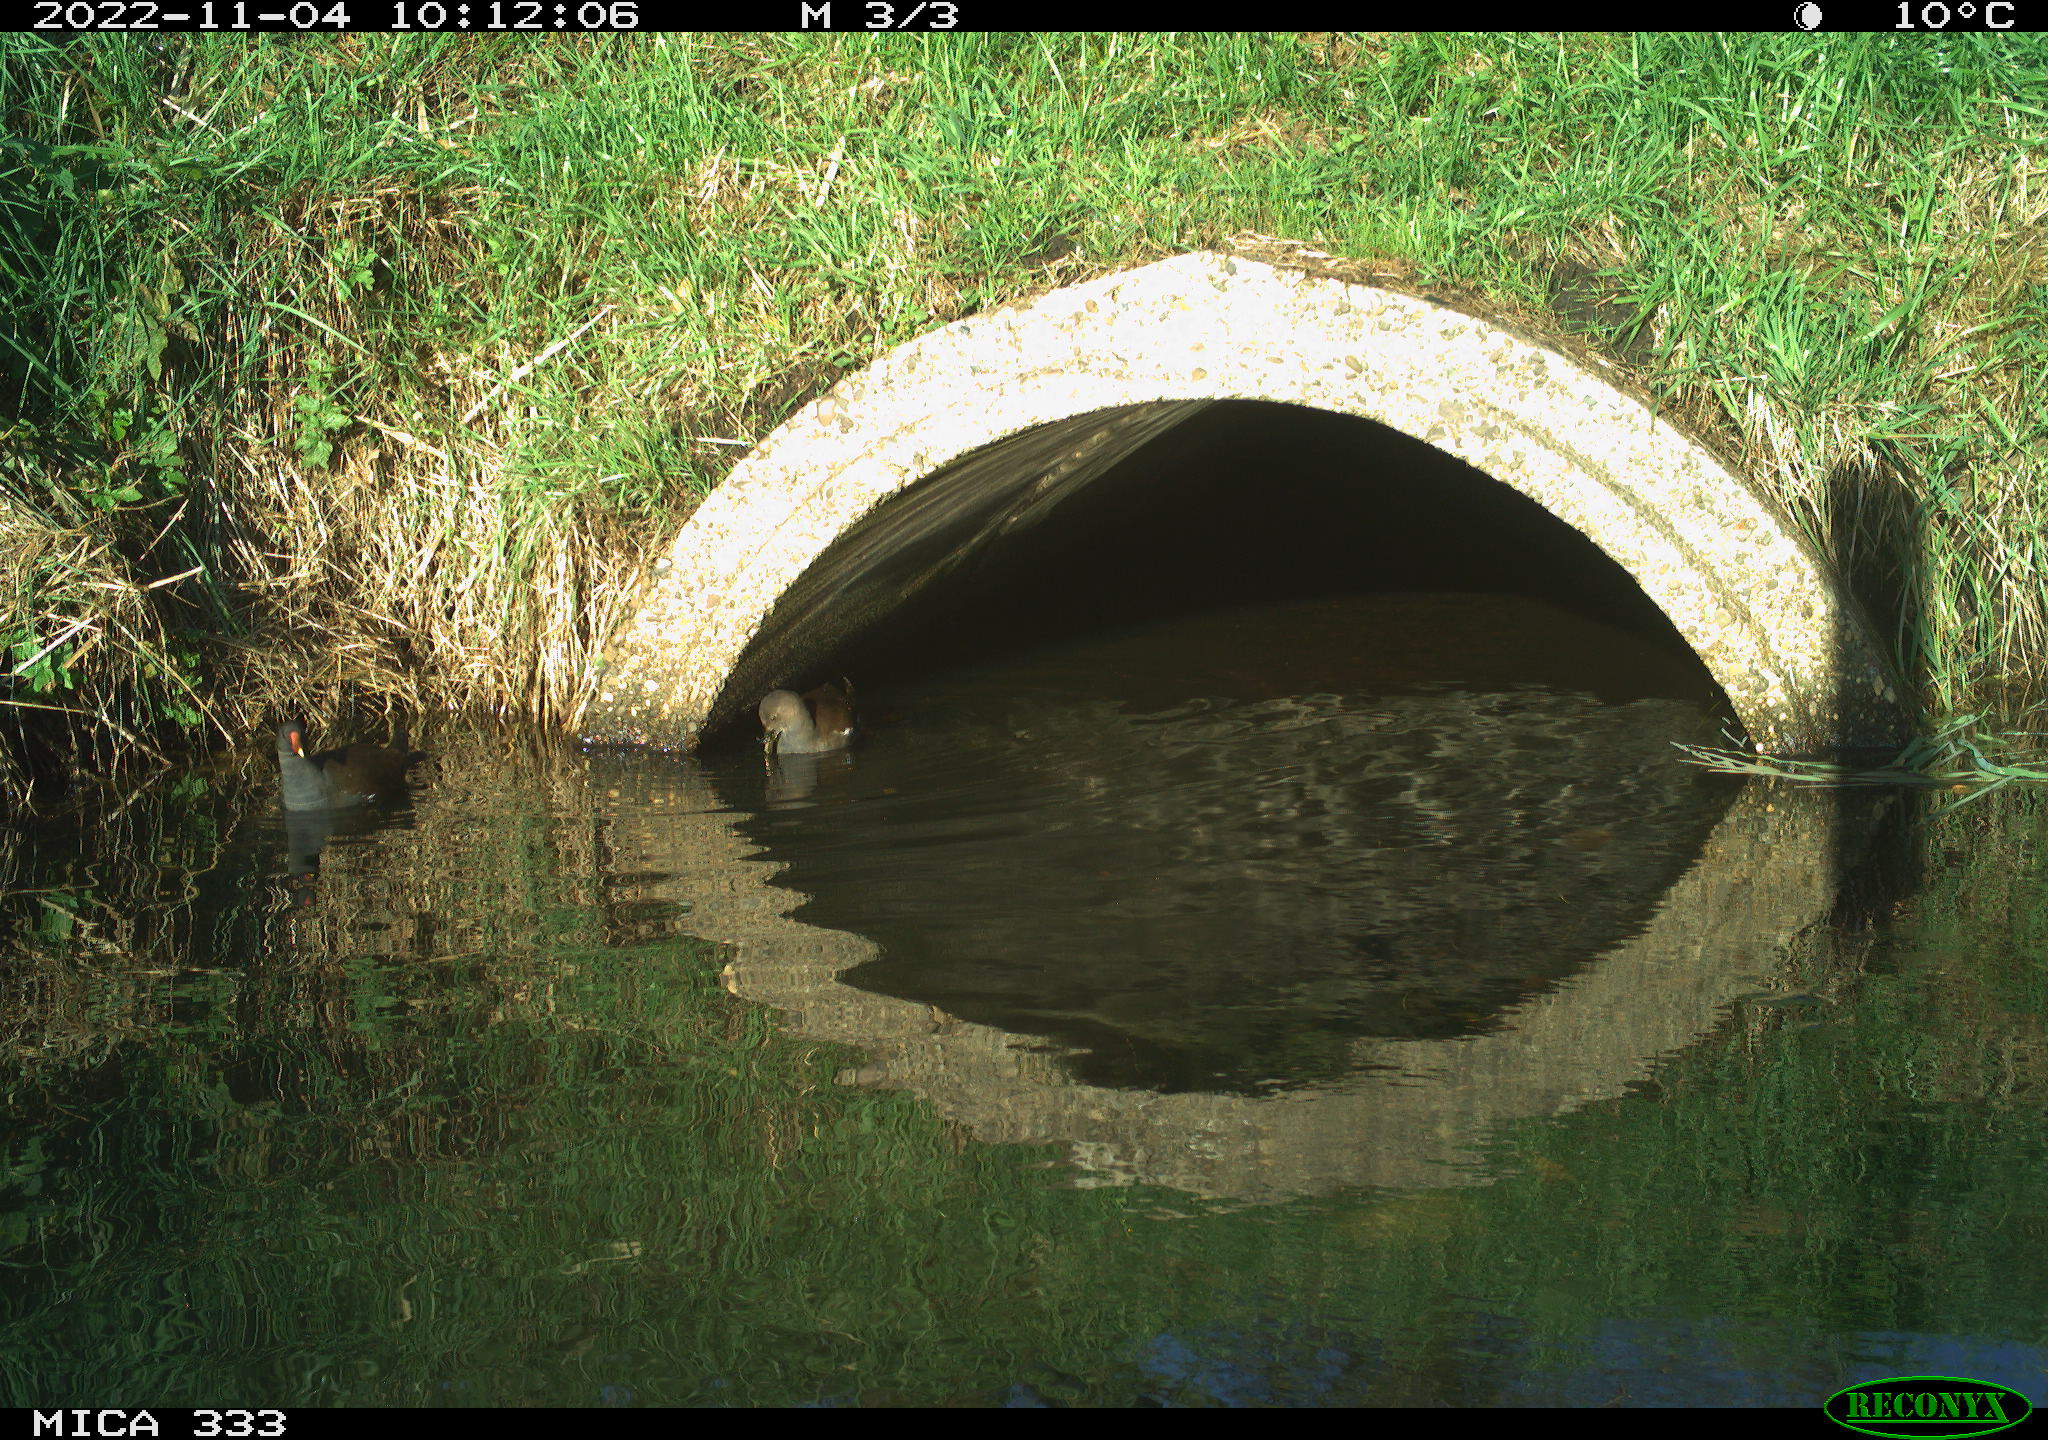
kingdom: Animalia
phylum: Chordata
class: Aves
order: Gruiformes
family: Rallidae
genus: Gallinula
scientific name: Gallinula chloropus
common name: Common moorhen
